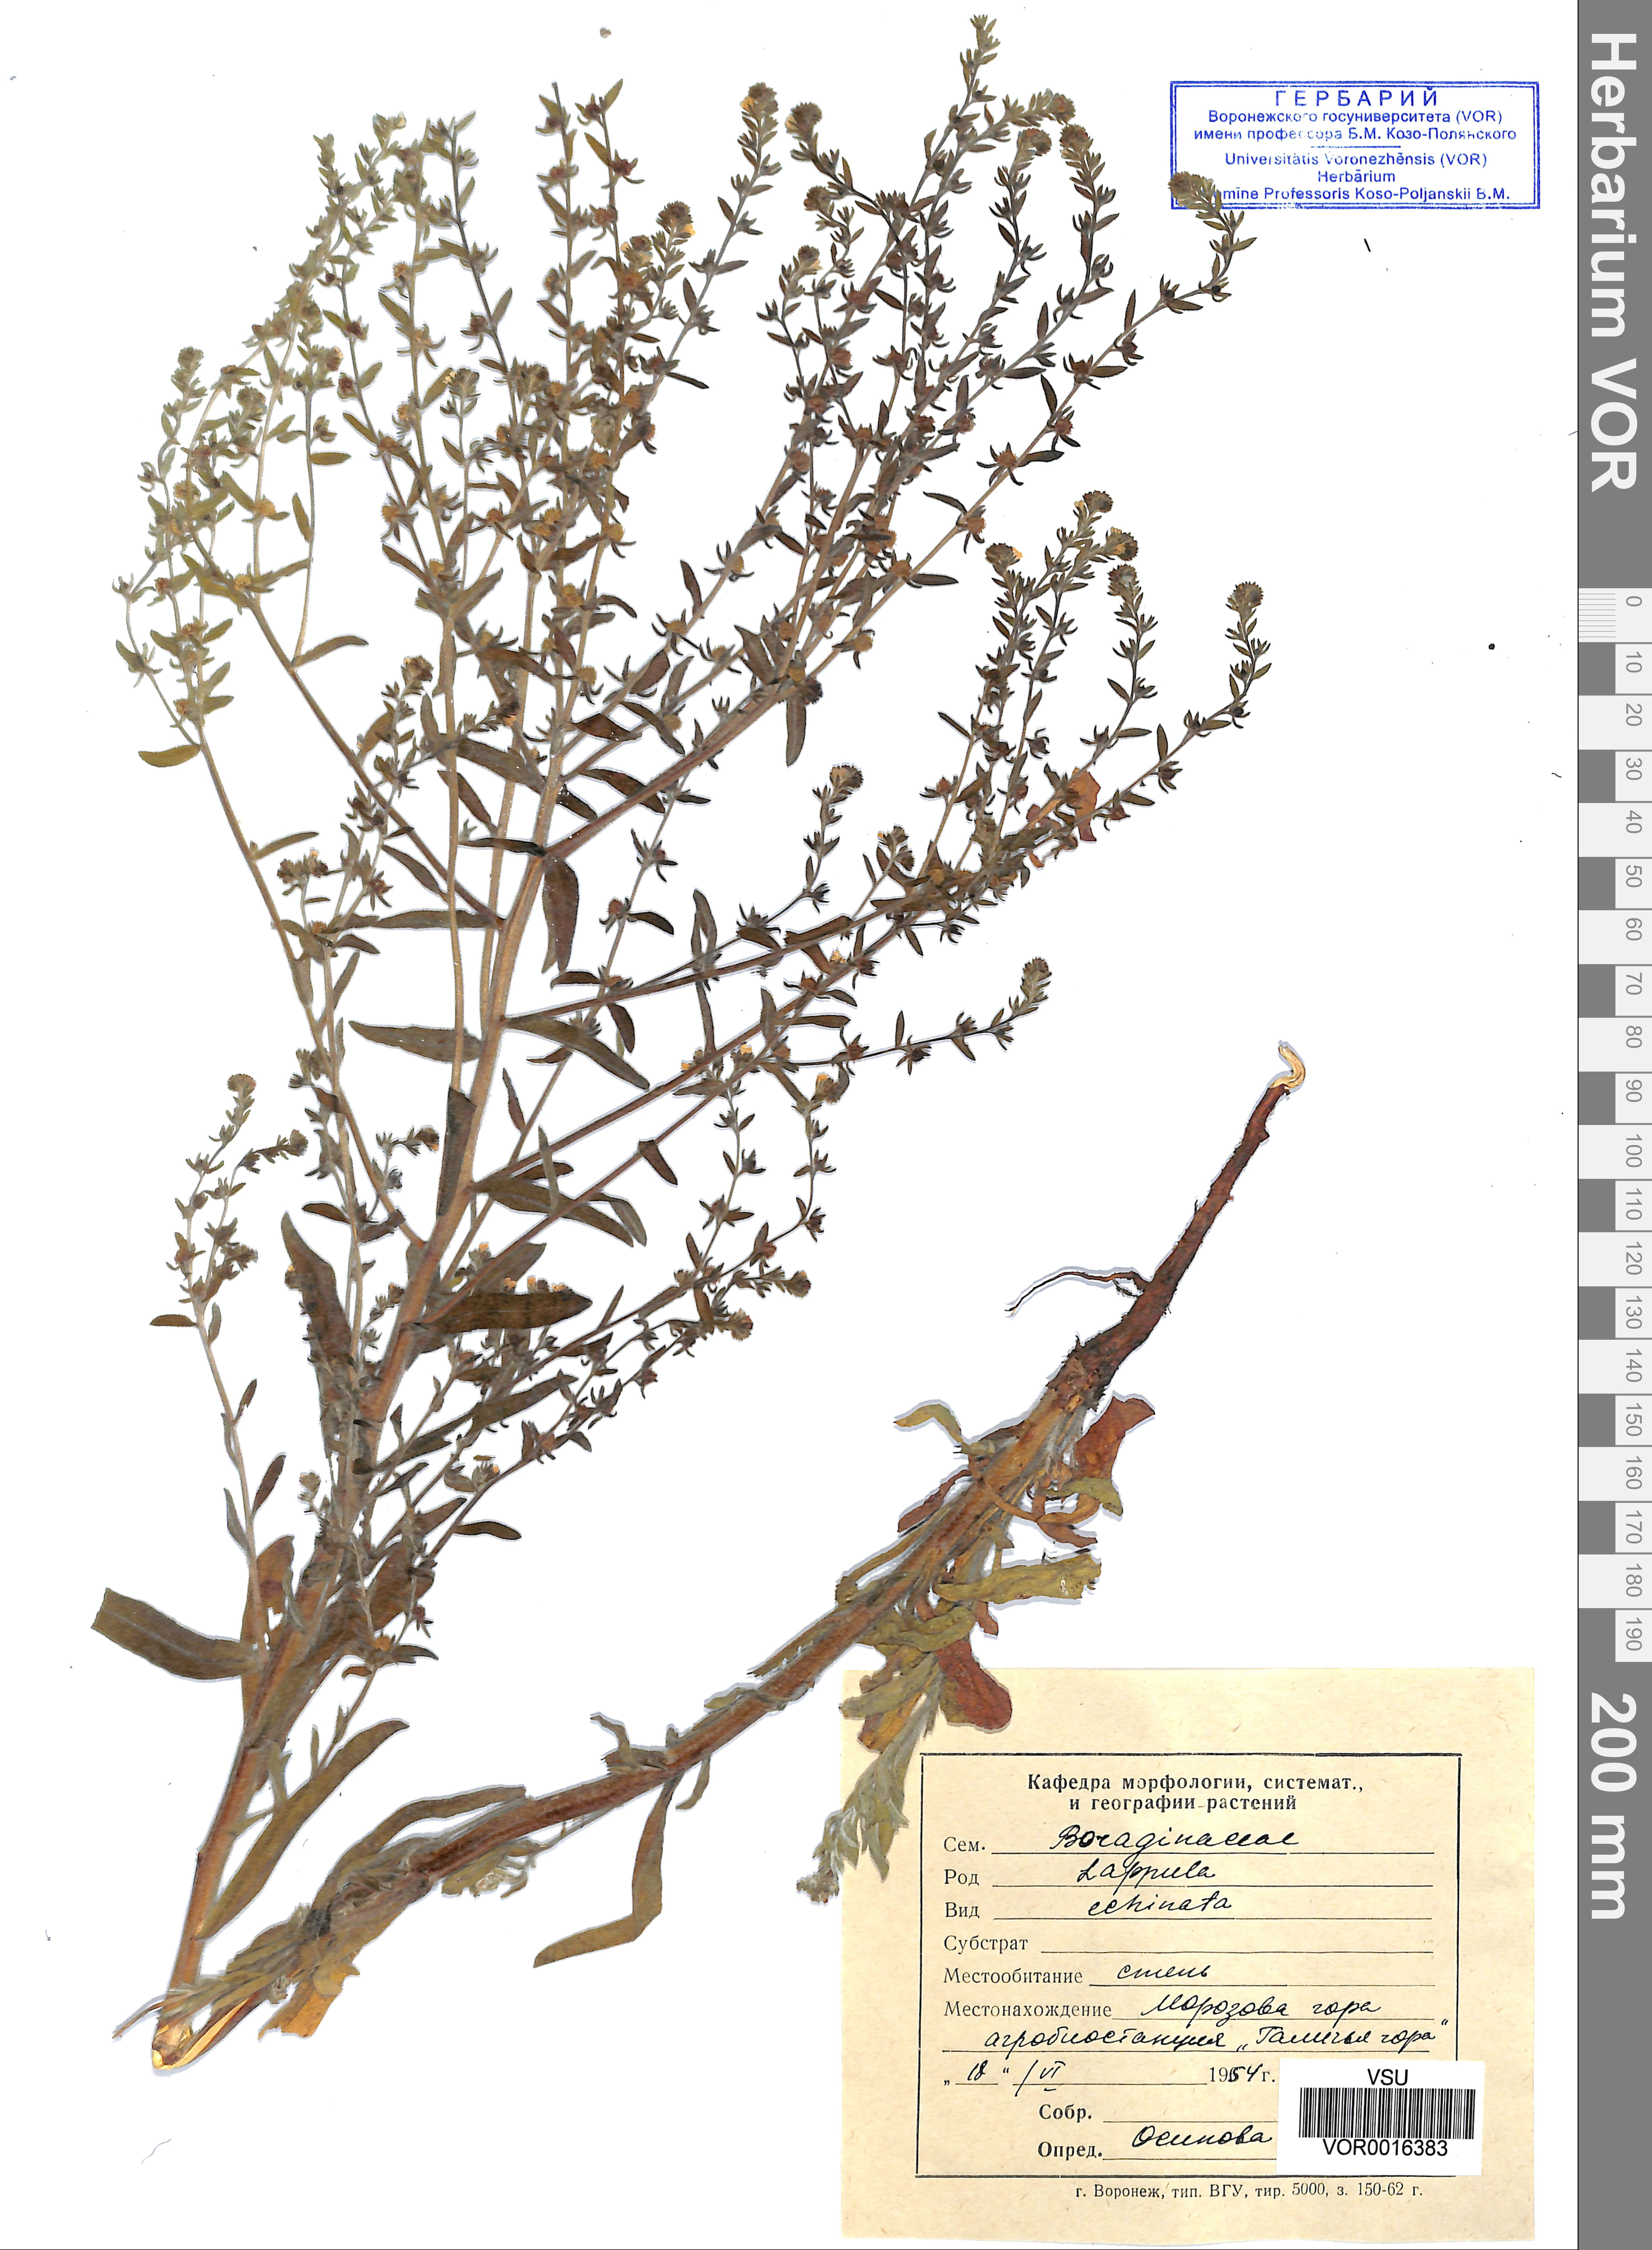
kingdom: Plantae
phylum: Tracheophyta
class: Magnoliopsida
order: Boraginales
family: Boraginaceae
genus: Lappula
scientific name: Lappula squarrosa
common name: European stickseed
